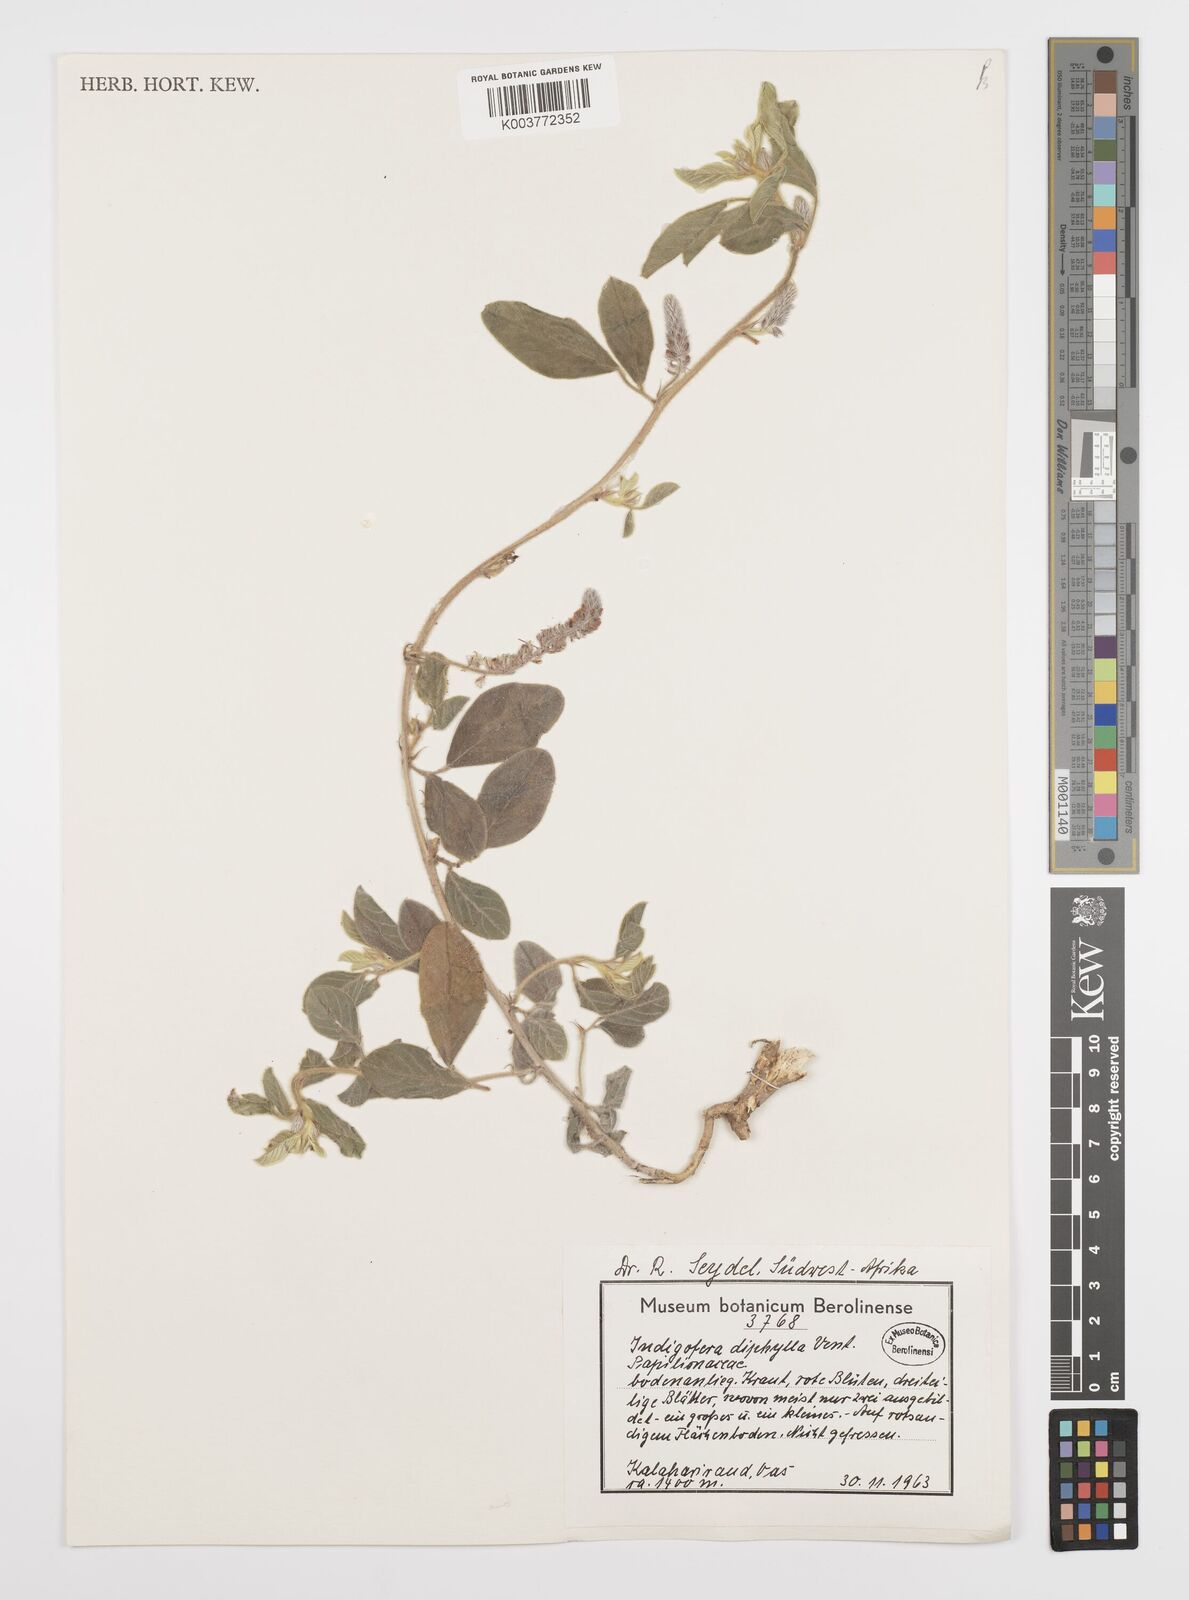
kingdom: Plantae
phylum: Tracheophyta
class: Magnoliopsida
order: Fabales
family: Fabaceae
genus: Indigofera
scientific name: Indigofera flavicans
